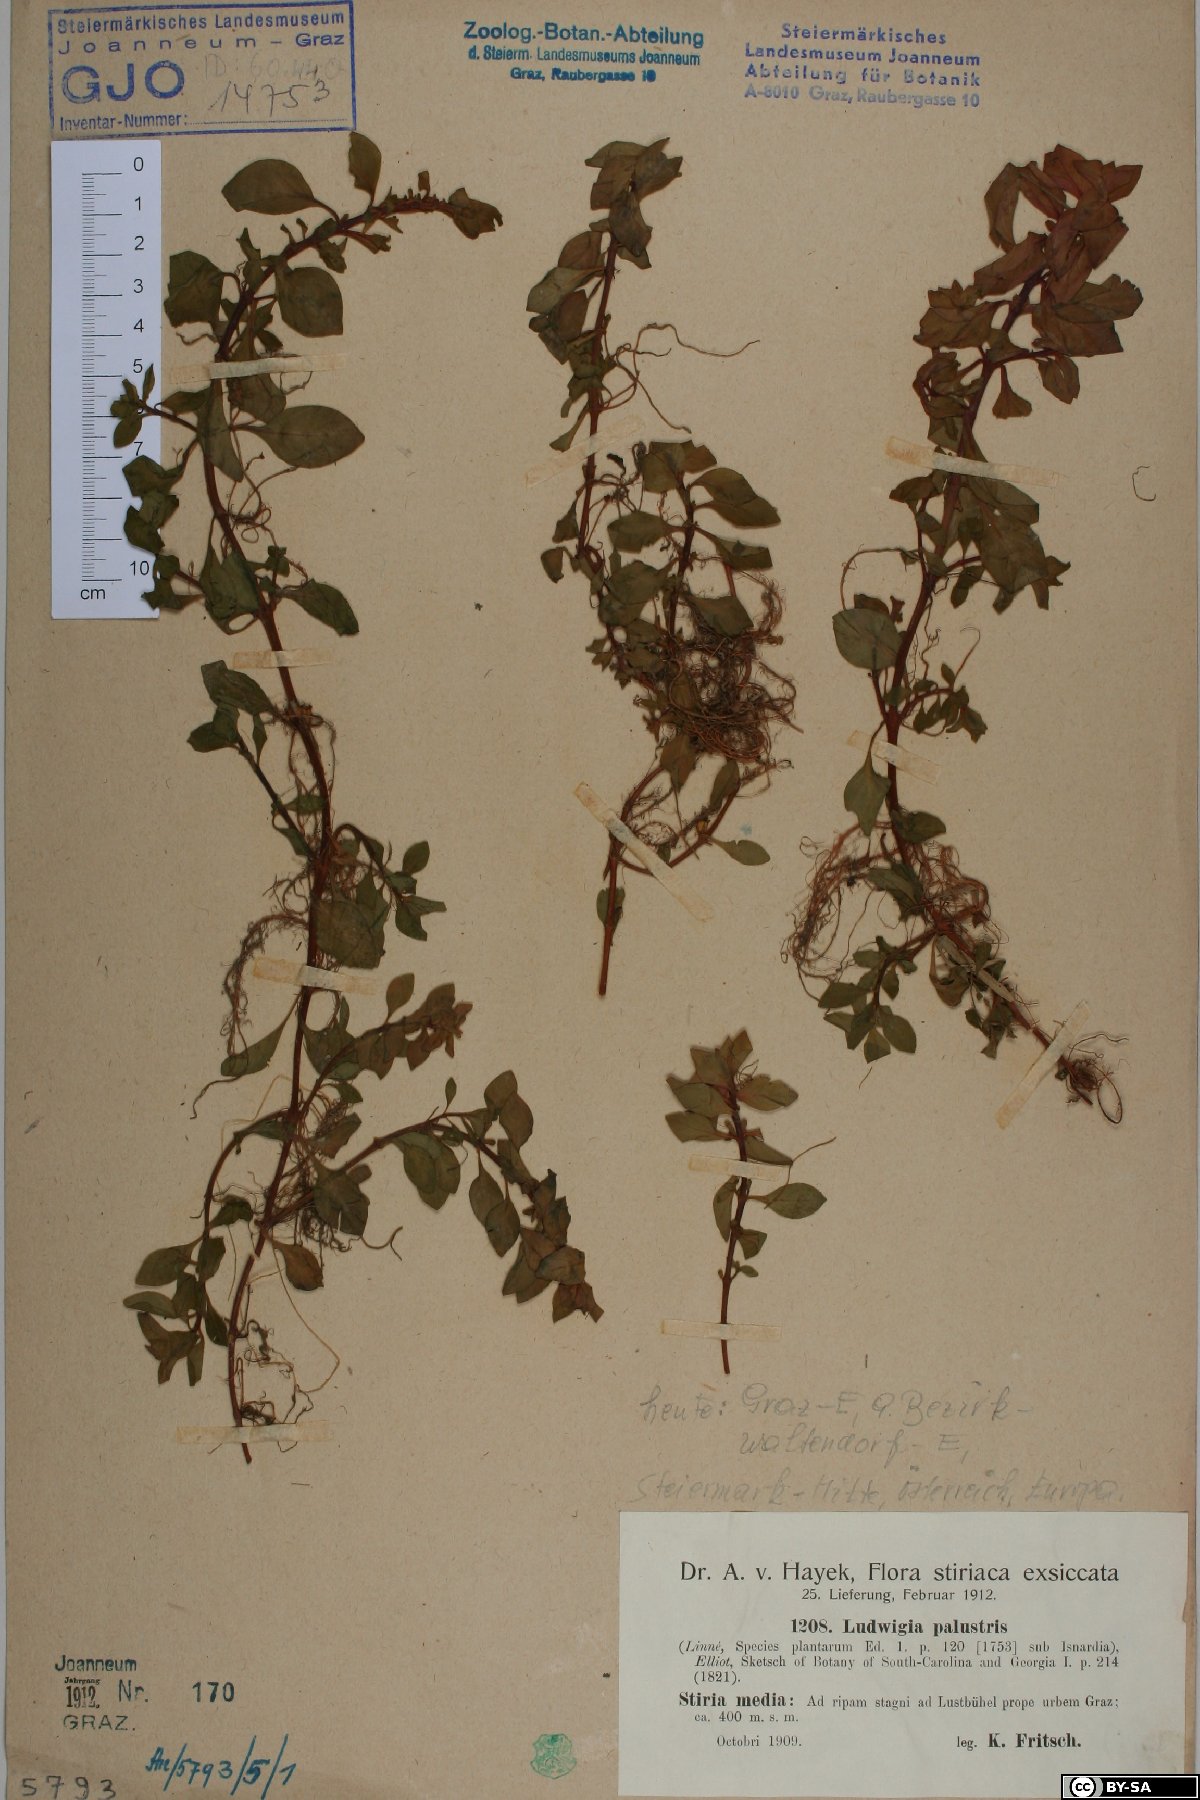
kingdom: Plantae
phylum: Tracheophyta
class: Magnoliopsida
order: Myrtales
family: Onagraceae
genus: Ludwigia
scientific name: Ludwigia palustris
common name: Hampshire-purslane
